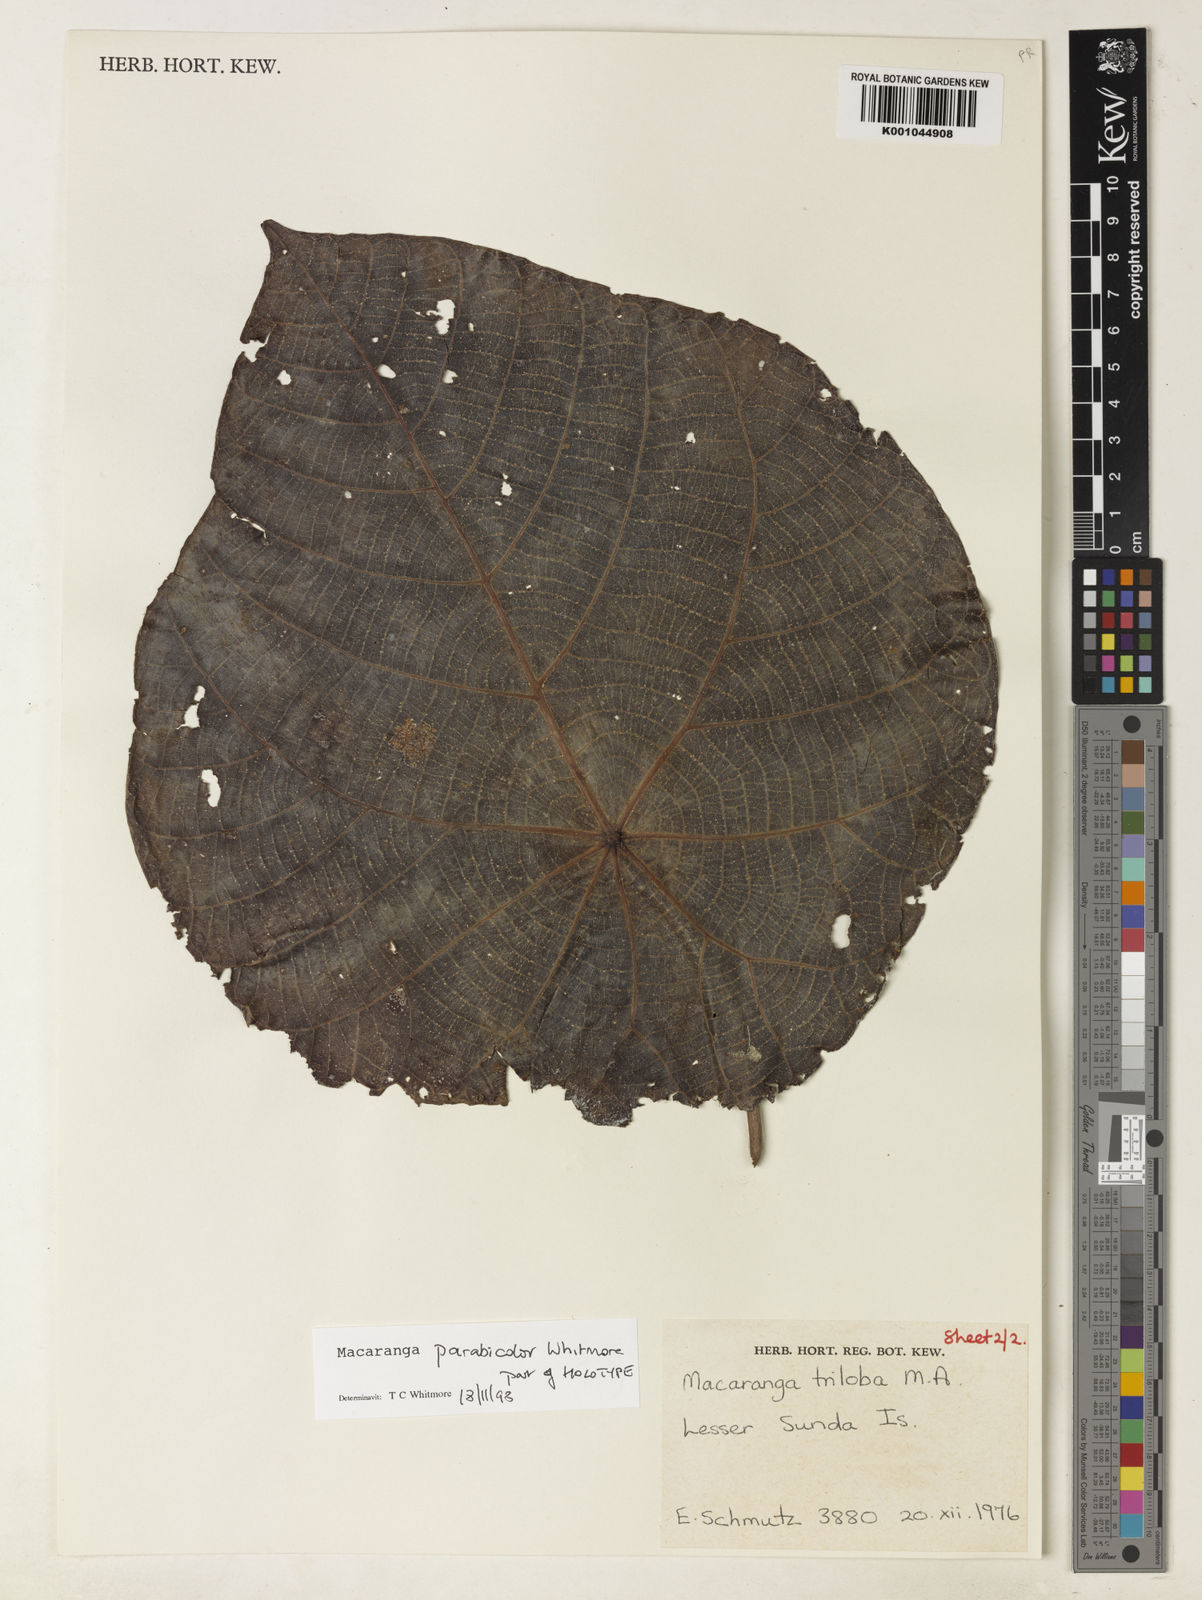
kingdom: Plantae
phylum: Tracheophyta
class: Magnoliopsida
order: Malpighiales
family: Euphorbiaceae
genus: Macaranga
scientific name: Macaranga parabicolor
